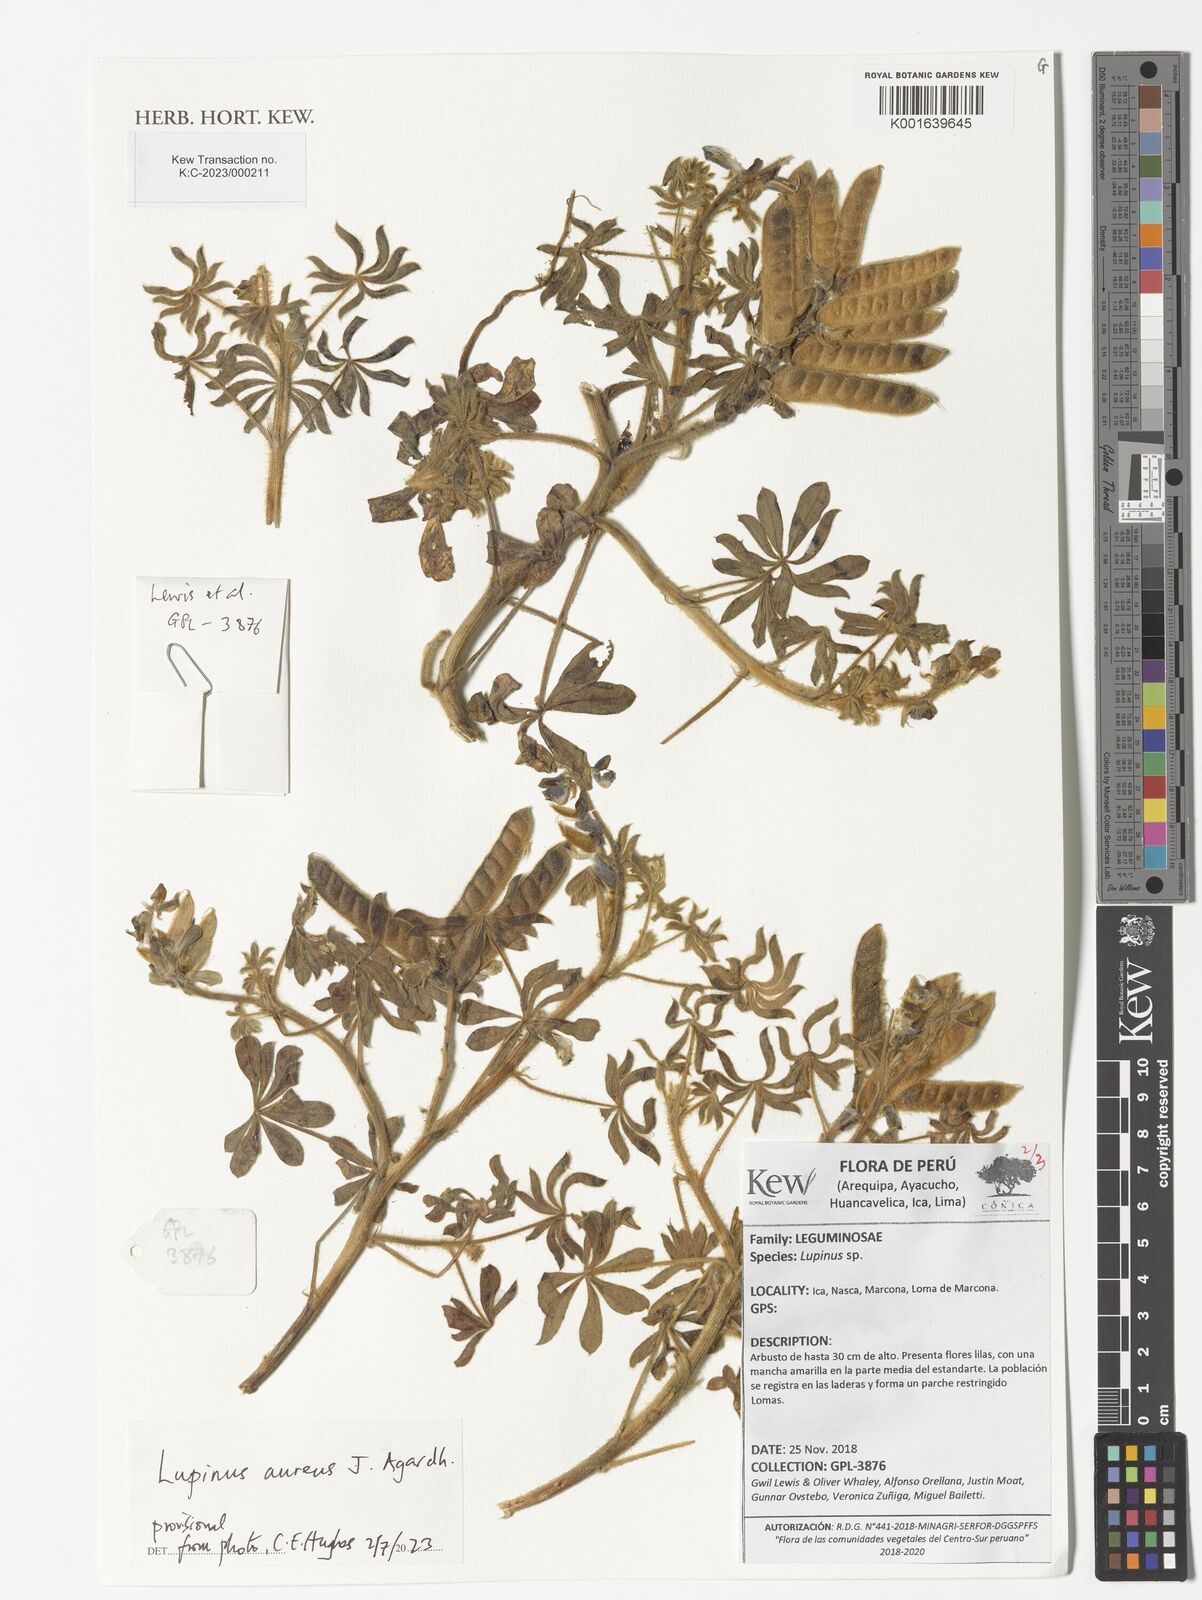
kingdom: Plantae
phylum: Tracheophyta
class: Magnoliopsida
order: Fabales
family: Fabaceae
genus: Lupinus
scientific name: Lupinus aureus
